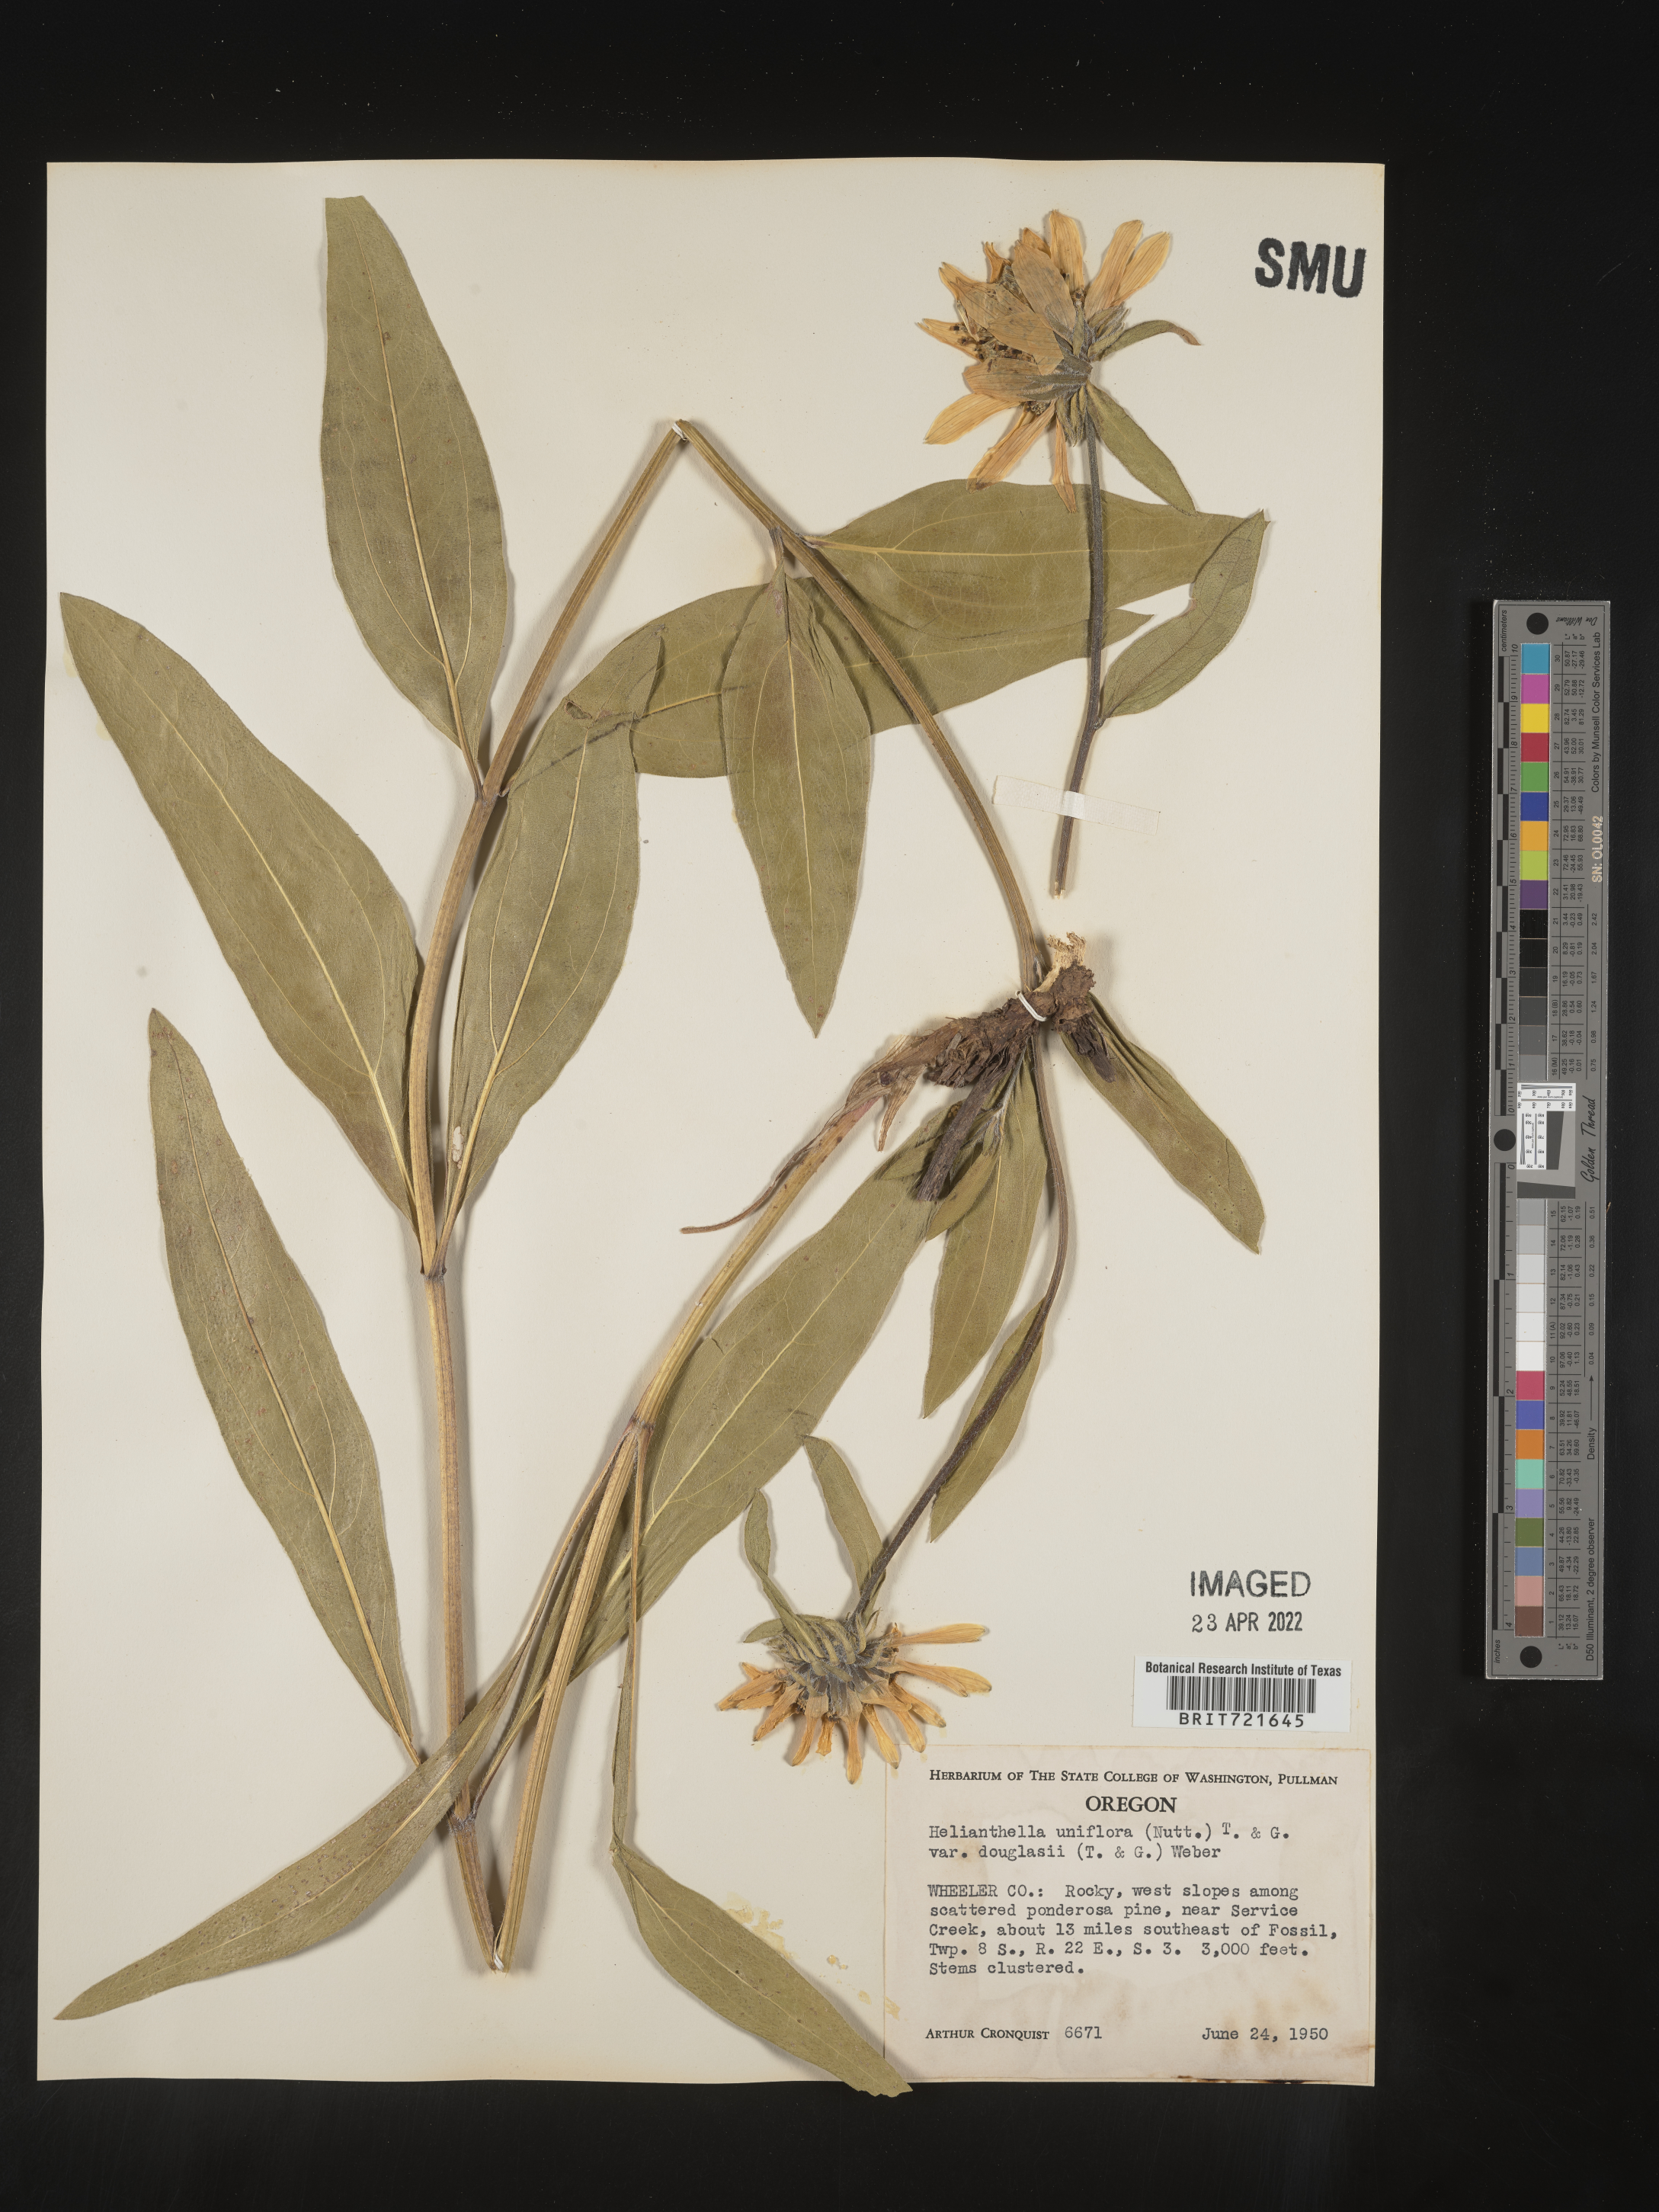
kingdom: Plantae
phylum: Tracheophyta
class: Magnoliopsida
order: Asterales
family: Asteraceae
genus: Helianthella
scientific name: Helianthella
